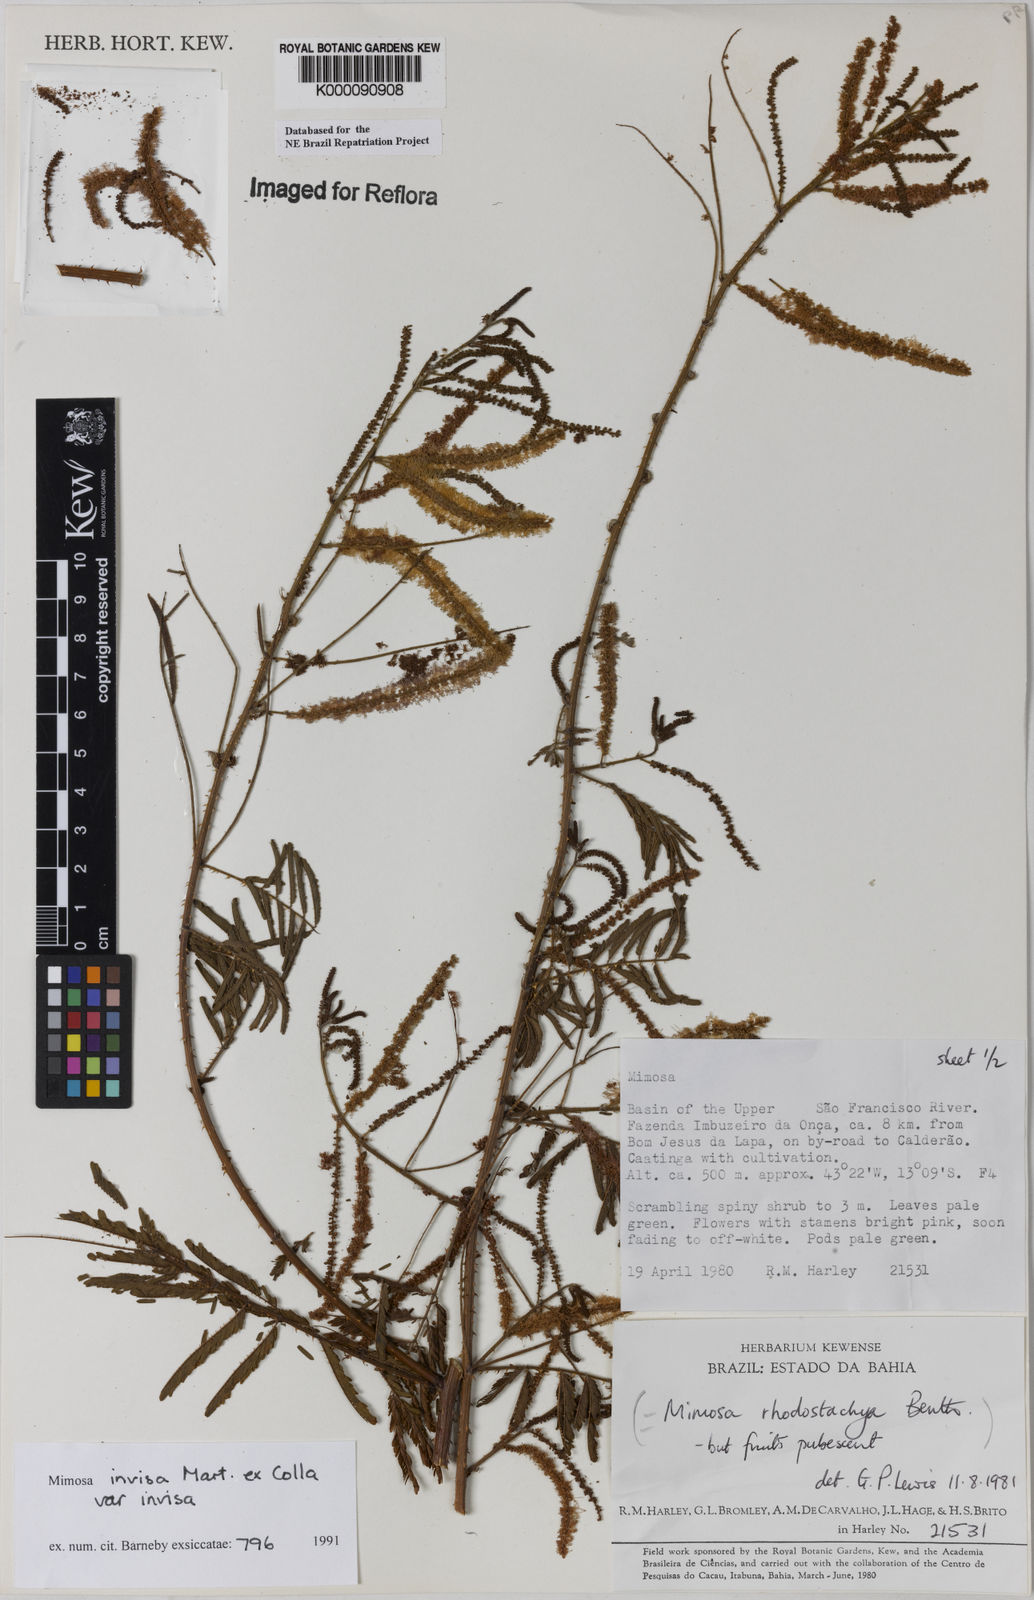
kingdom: Plantae
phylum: Tracheophyta
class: Magnoliopsida
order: Fabales
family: Fabaceae
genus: Mimosa
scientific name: Mimosa invisa
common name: Creeping sensitive-plant
